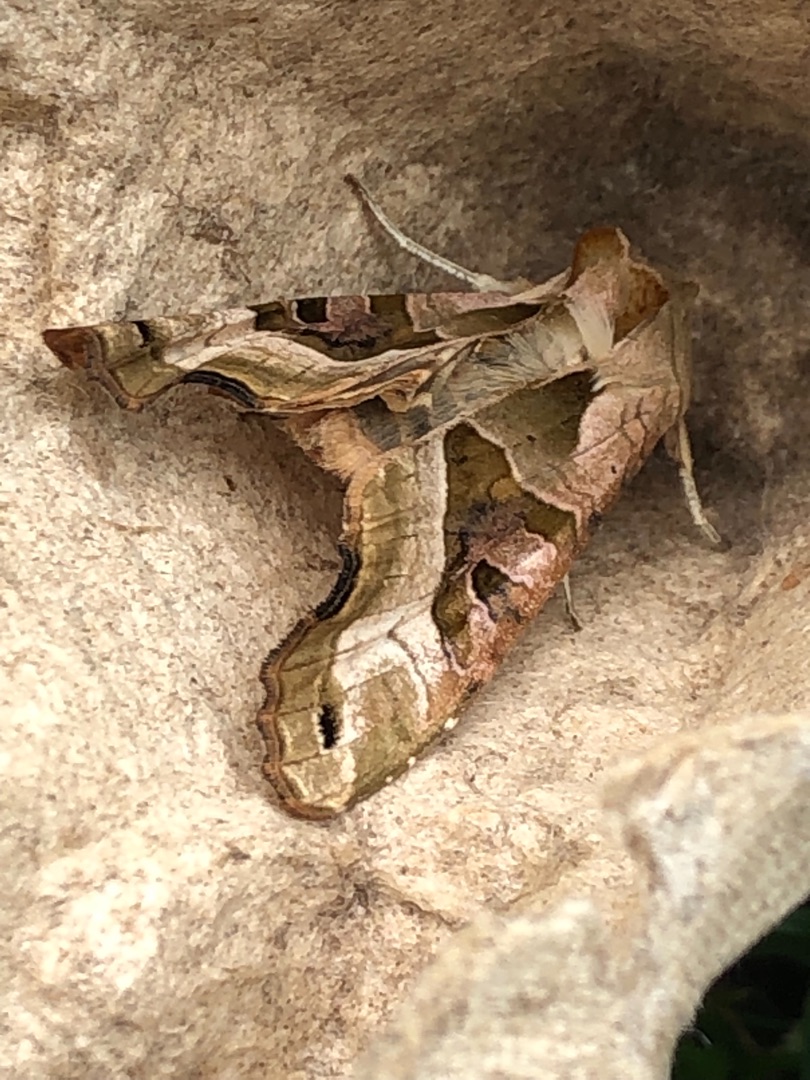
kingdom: Animalia
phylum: Arthropoda
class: Insecta
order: Lepidoptera
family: Noctuidae
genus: Phlogophora
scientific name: Phlogophora meticulosa
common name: Agatugle
